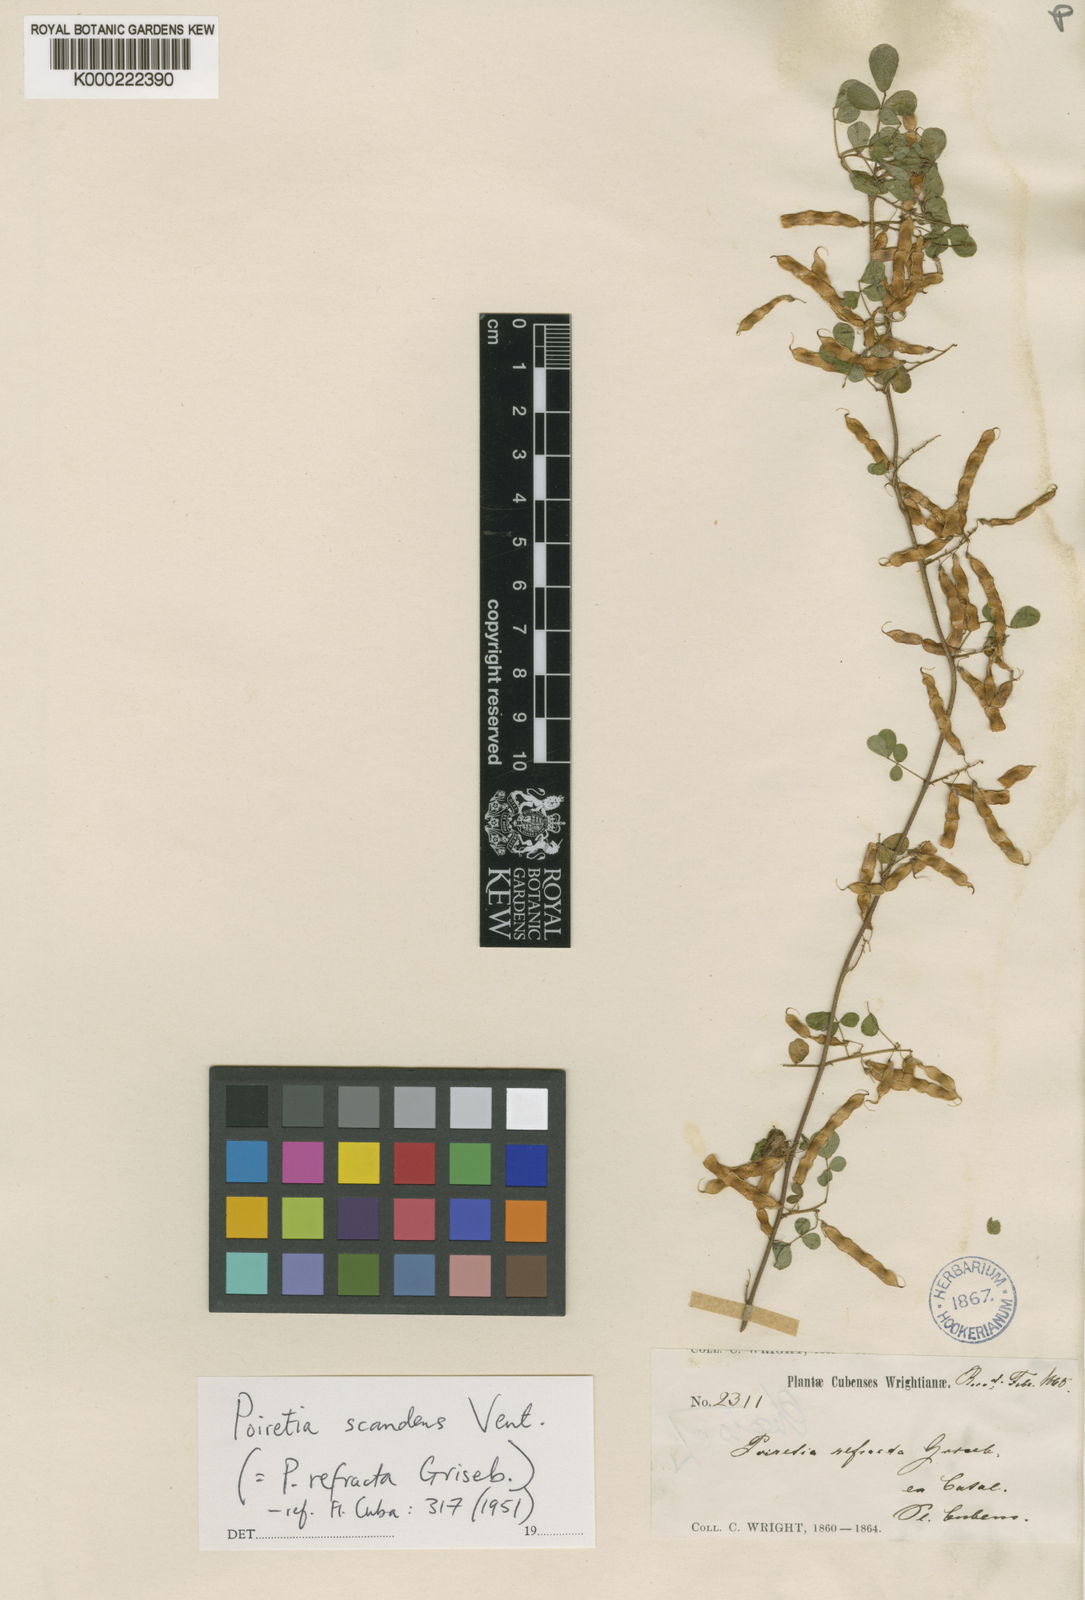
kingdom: Plantae
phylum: Tracheophyta
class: Magnoliopsida
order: Fabales
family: Fabaceae
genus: Poiretia
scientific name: Poiretia punctata
